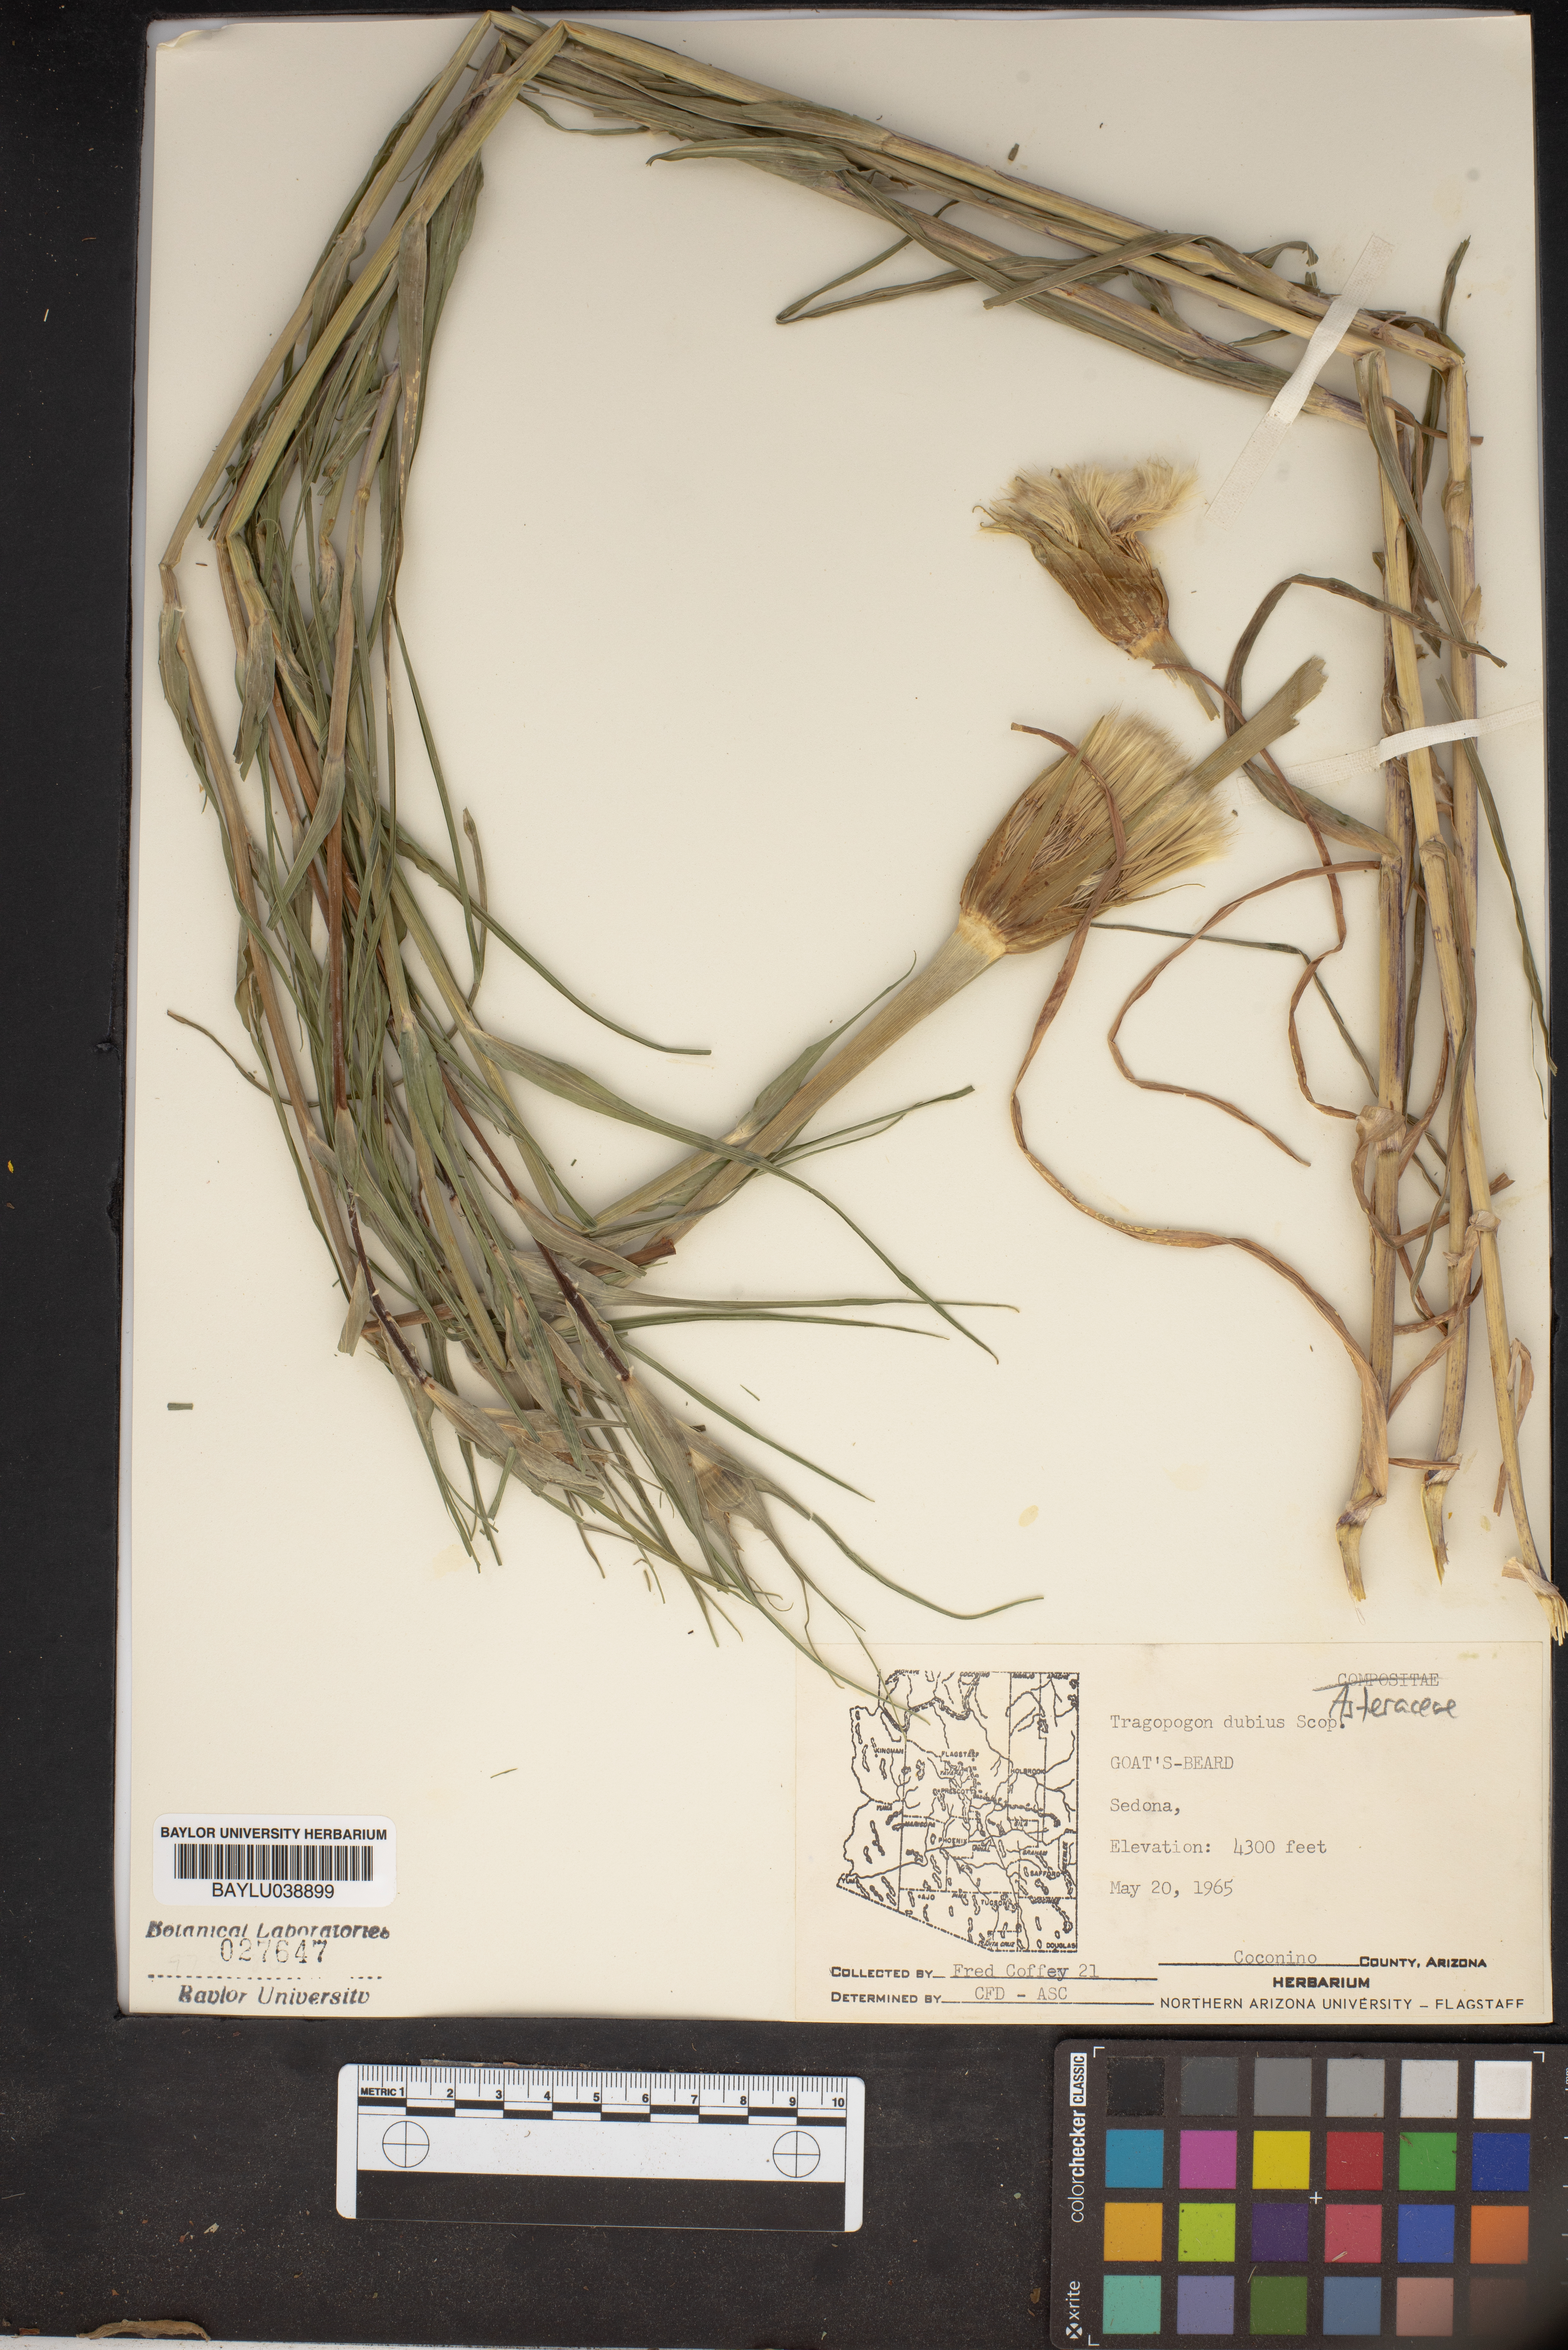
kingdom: Plantae
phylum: Tracheophyta
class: Magnoliopsida
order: Asterales
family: Asteraceae
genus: Tragopogon
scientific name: Tragopogon dubius
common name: Yellow salsify
